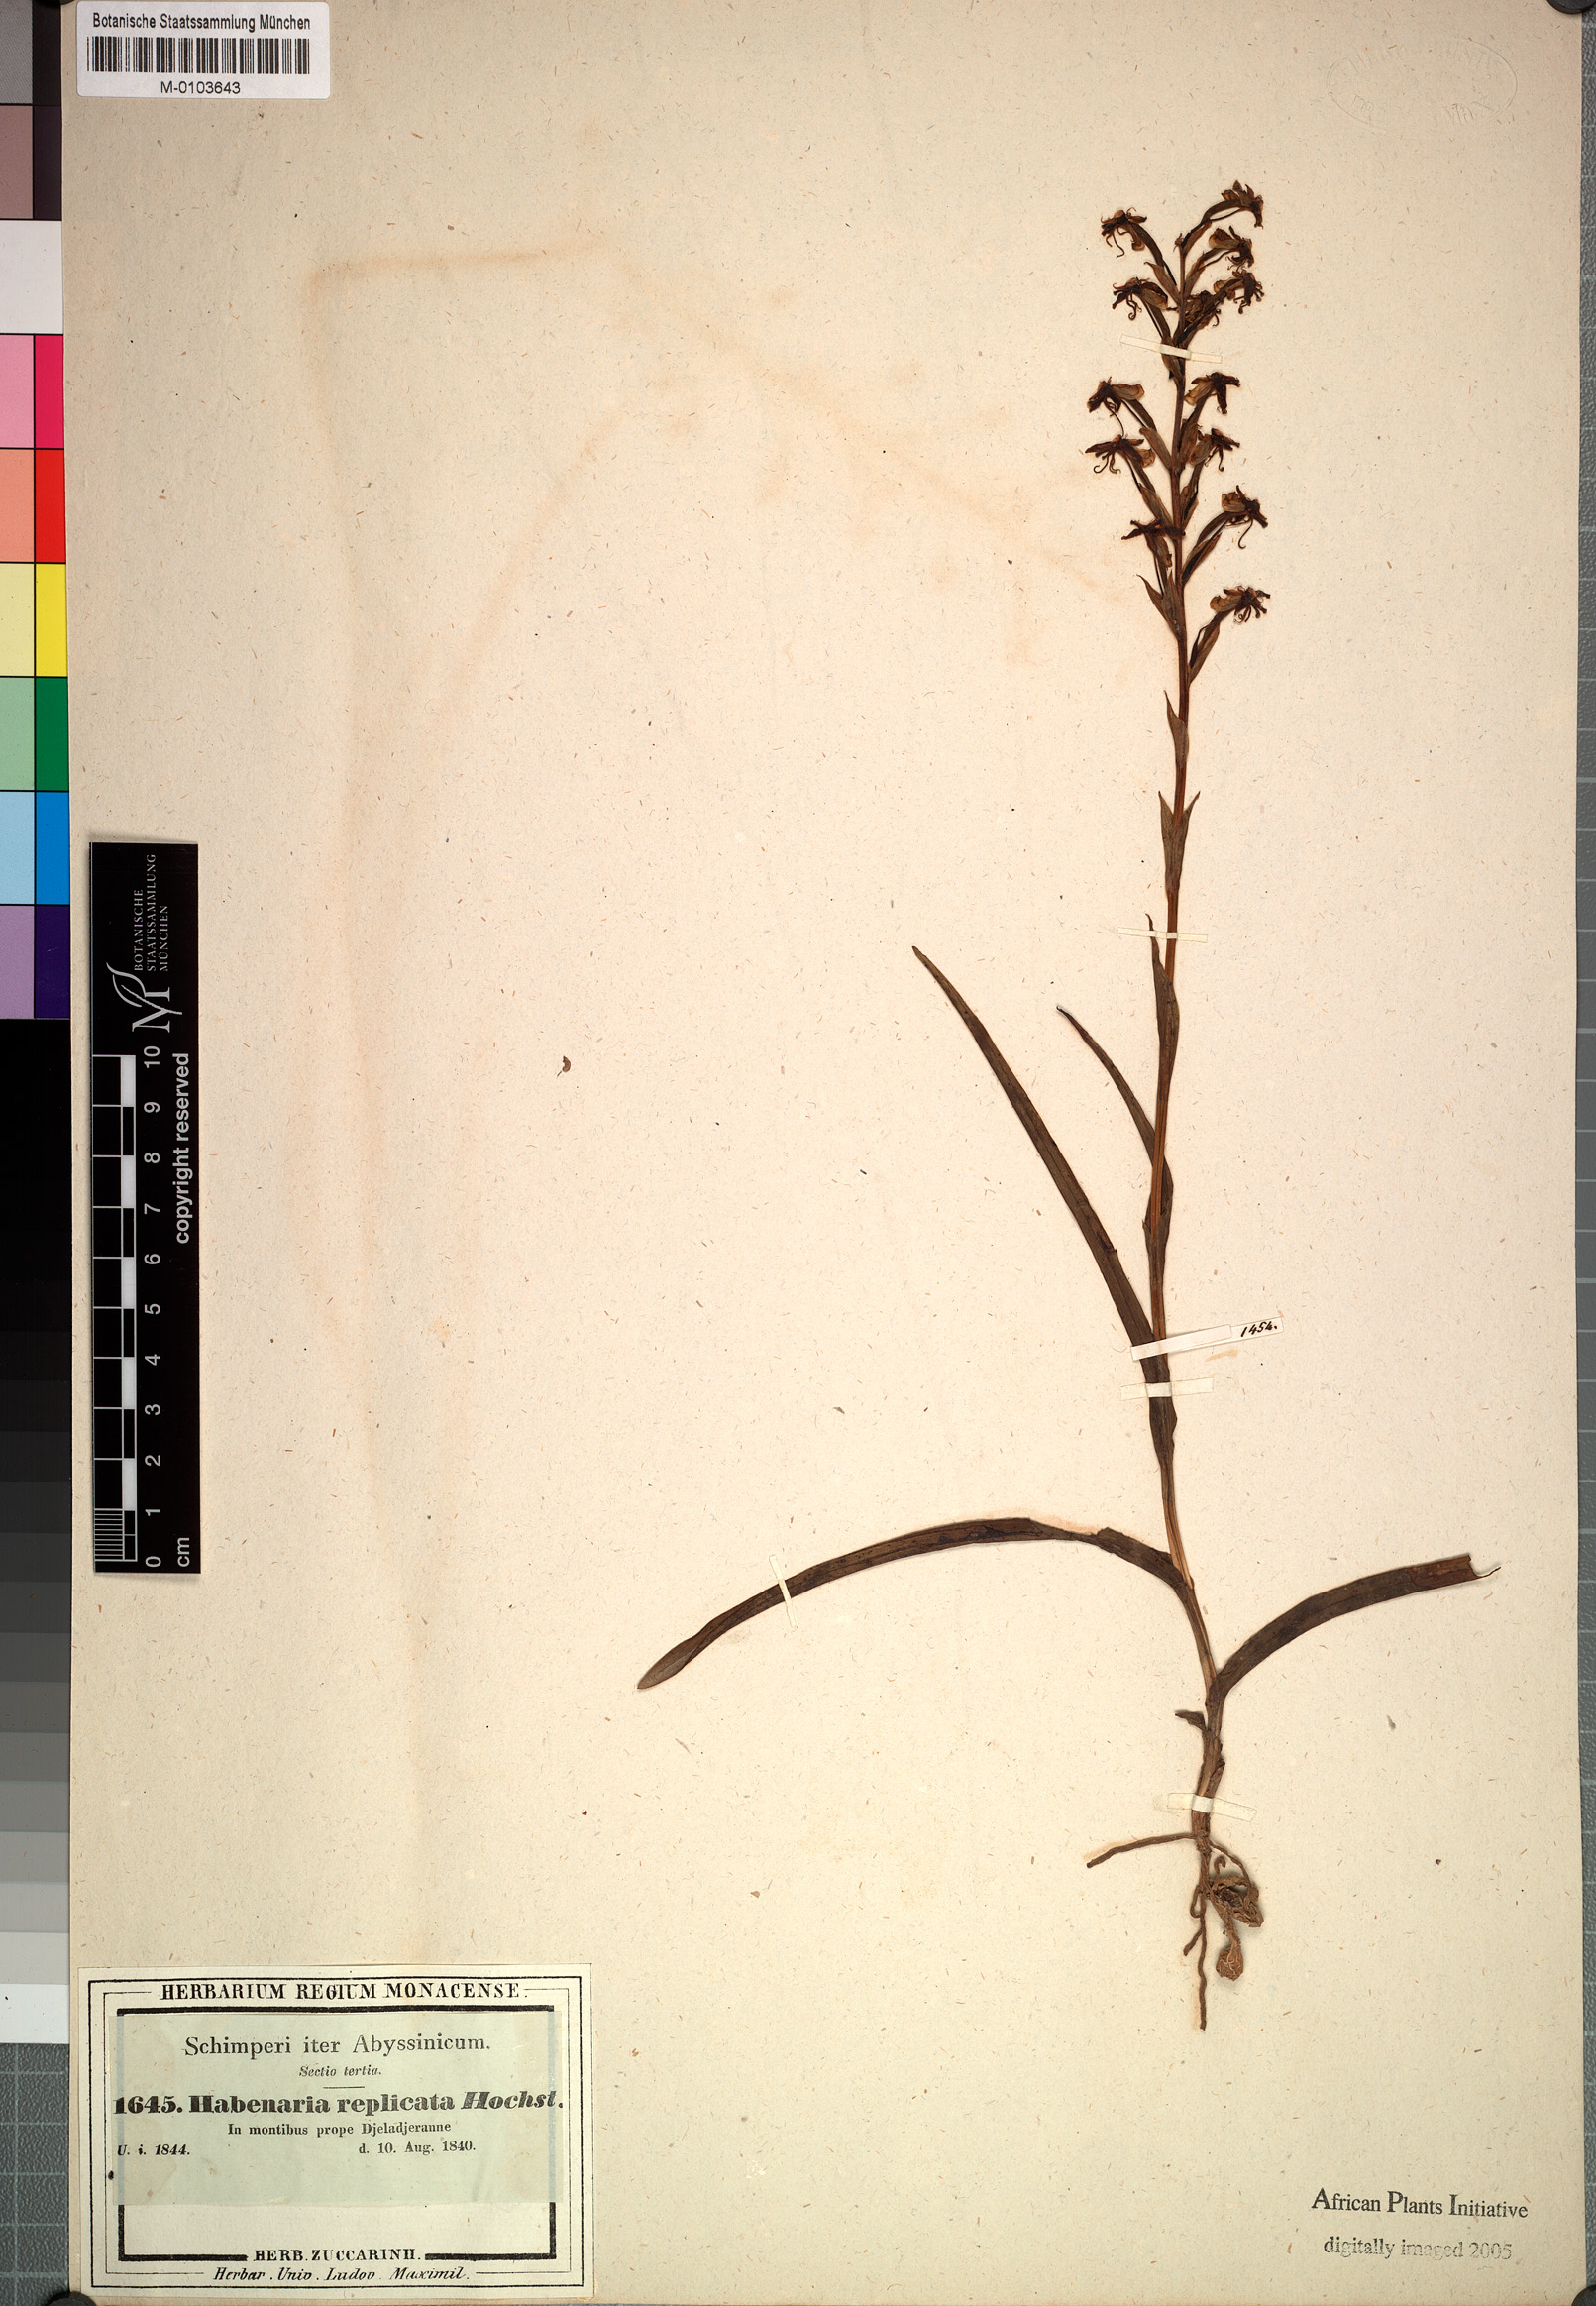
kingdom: Plantae
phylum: Tracheophyta
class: Liliopsida
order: Asparagales
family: Orchidaceae
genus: Habenaria
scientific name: Habenaria humilior
